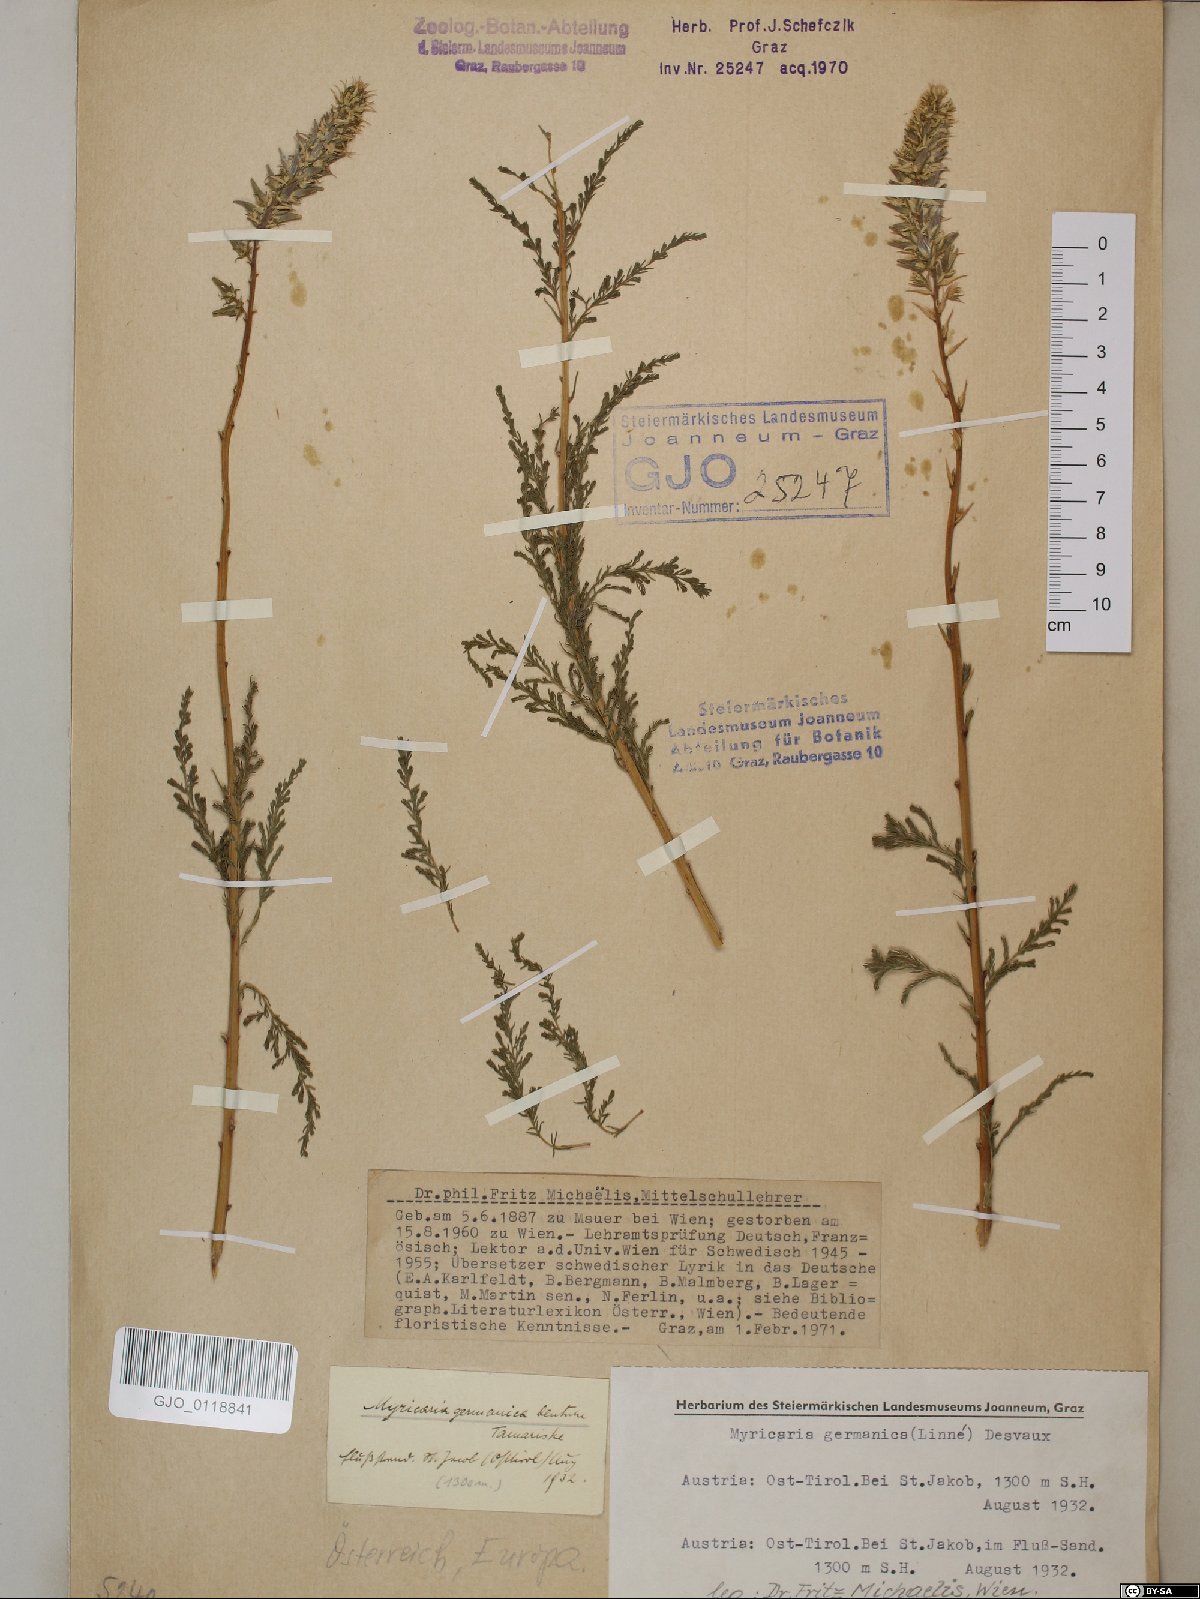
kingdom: Plantae
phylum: Tracheophyta
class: Magnoliopsida
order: Caryophyllales
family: Tamaricaceae
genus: Myricaria
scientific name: Myricaria germanica
